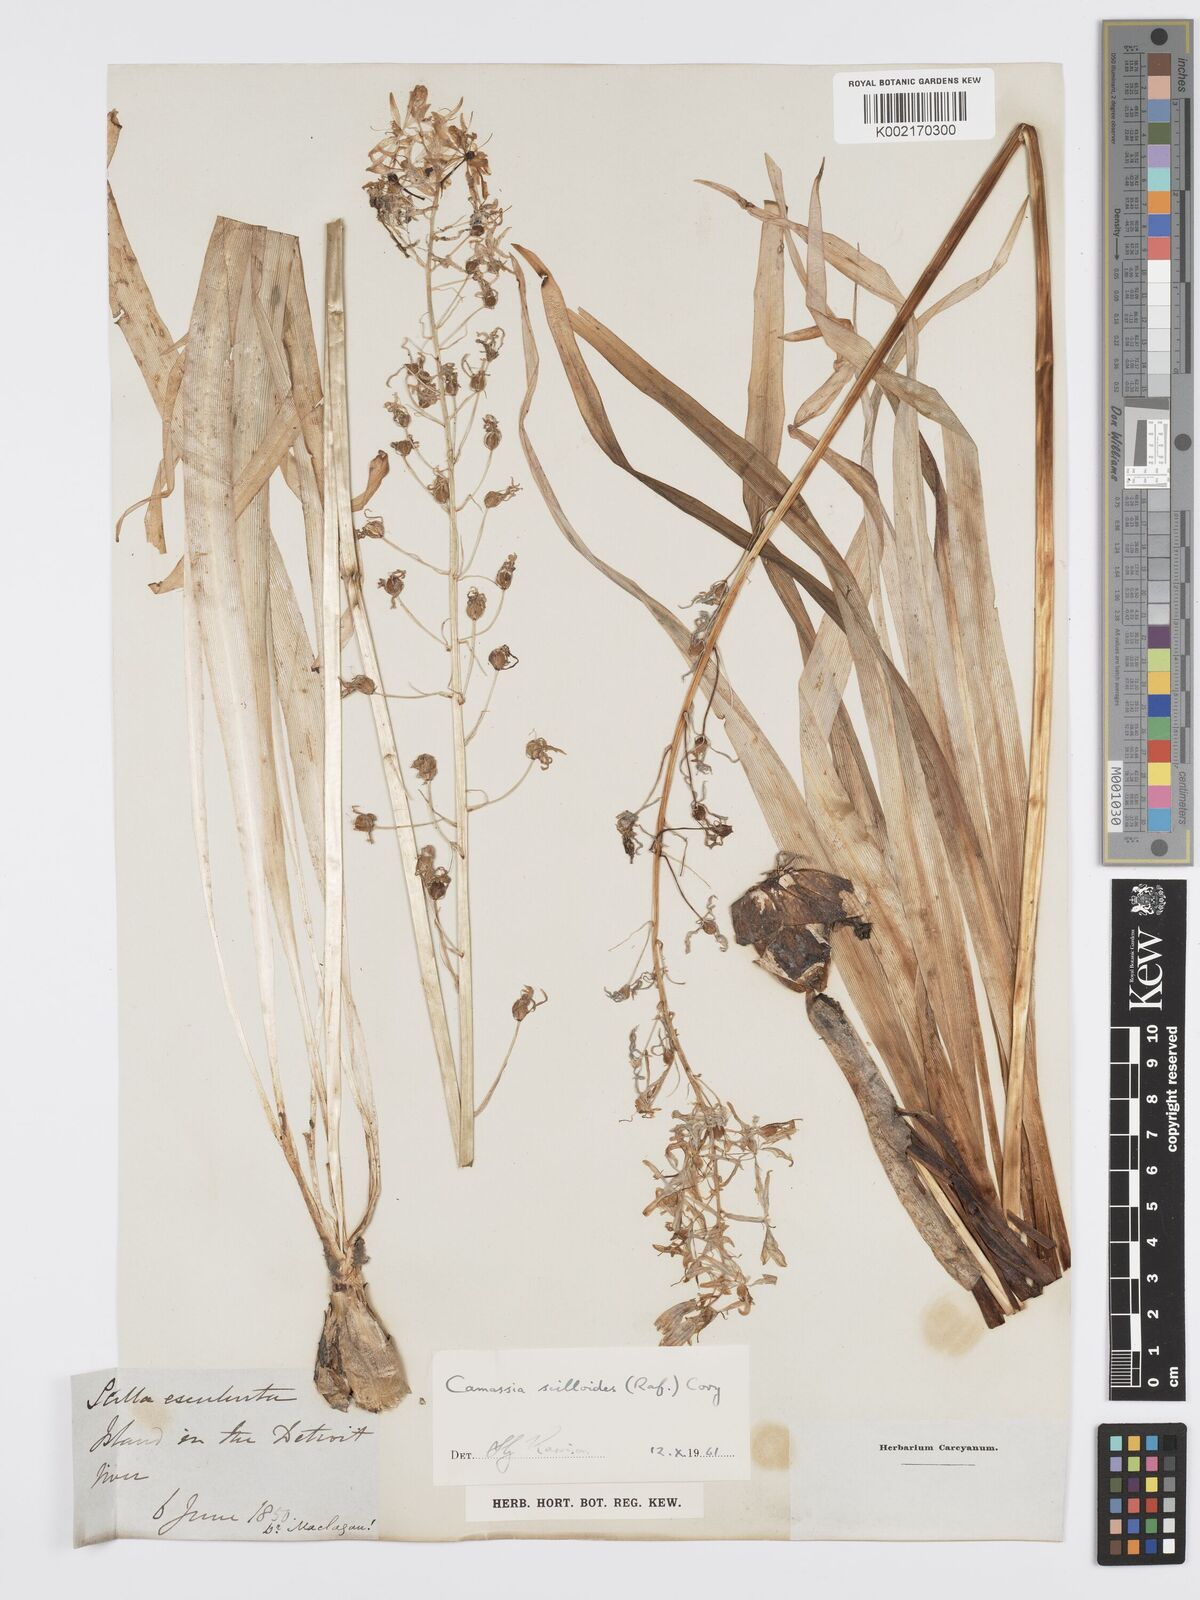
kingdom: Plantae
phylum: Tracheophyta
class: Liliopsida
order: Asparagales
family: Asparagaceae
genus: Camassia
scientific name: Camassia scilloides
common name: Wild hyacinth
